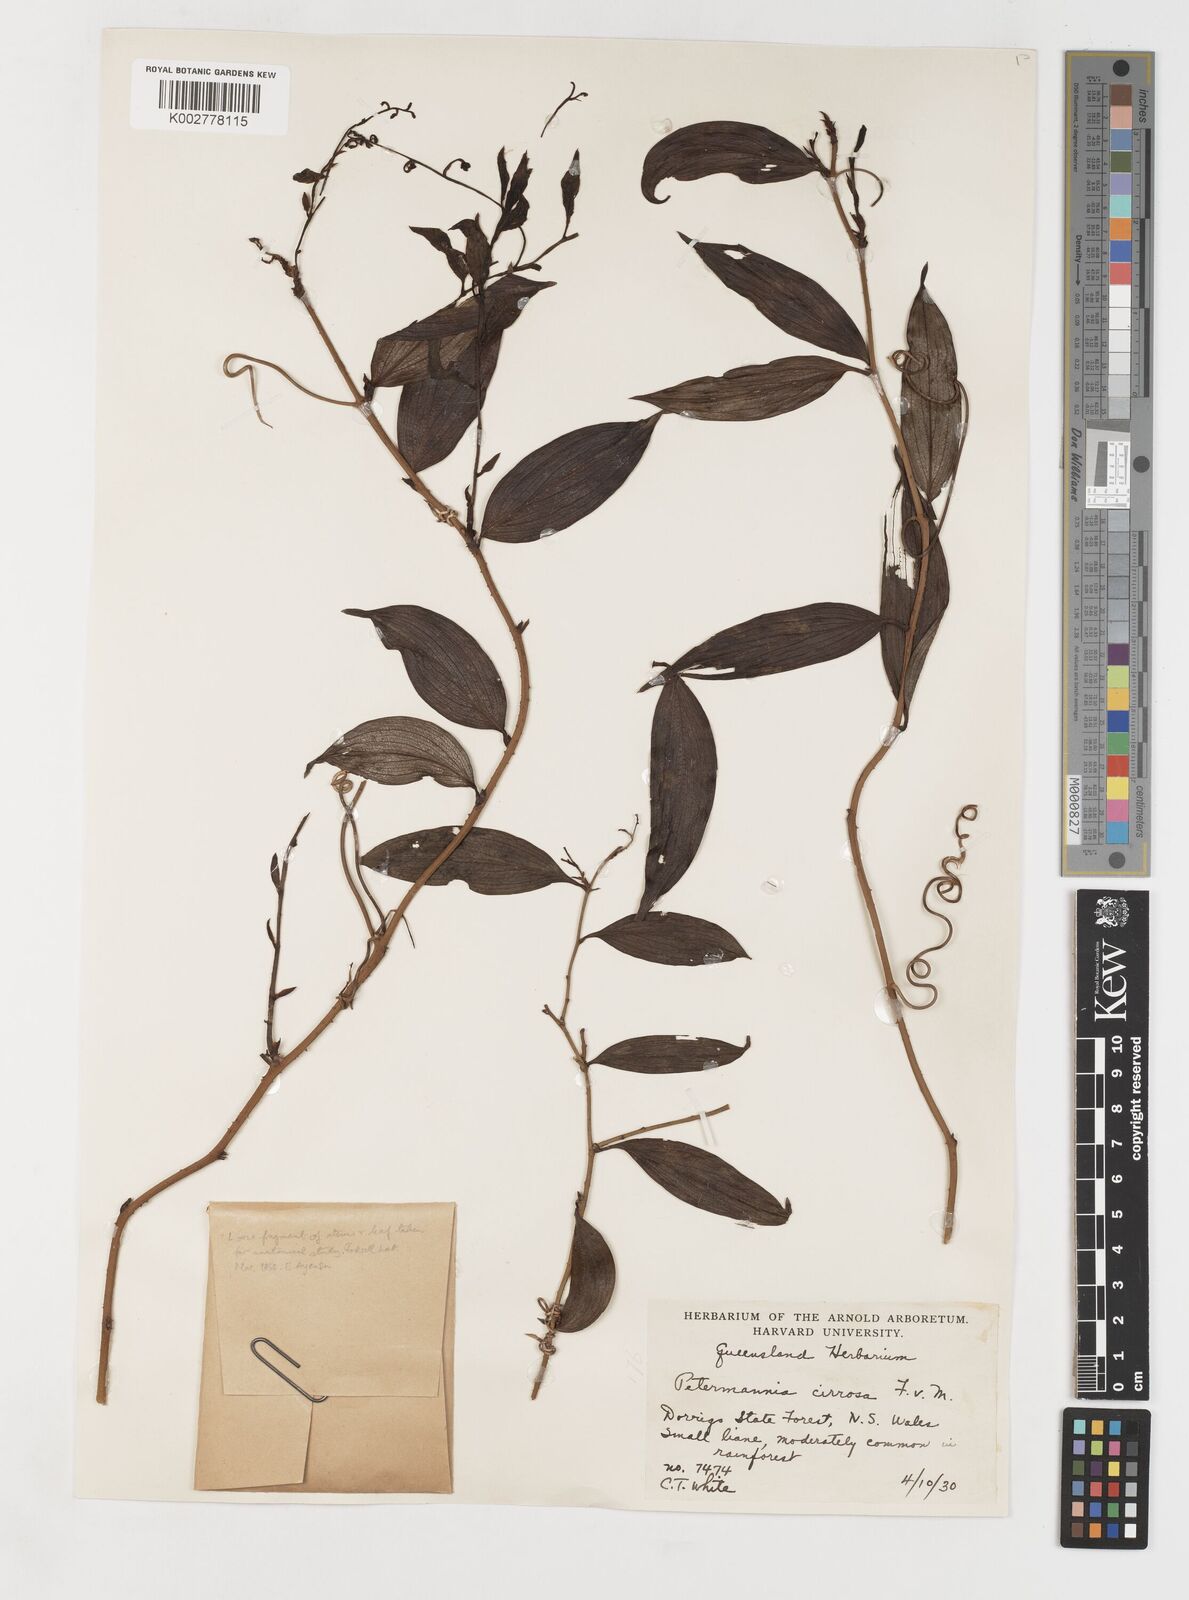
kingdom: Plantae
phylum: Tracheophyta
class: Liliopsida
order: Liliales
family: Petermanniaceae
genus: Petermannia
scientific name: Petermannia cirrosa
